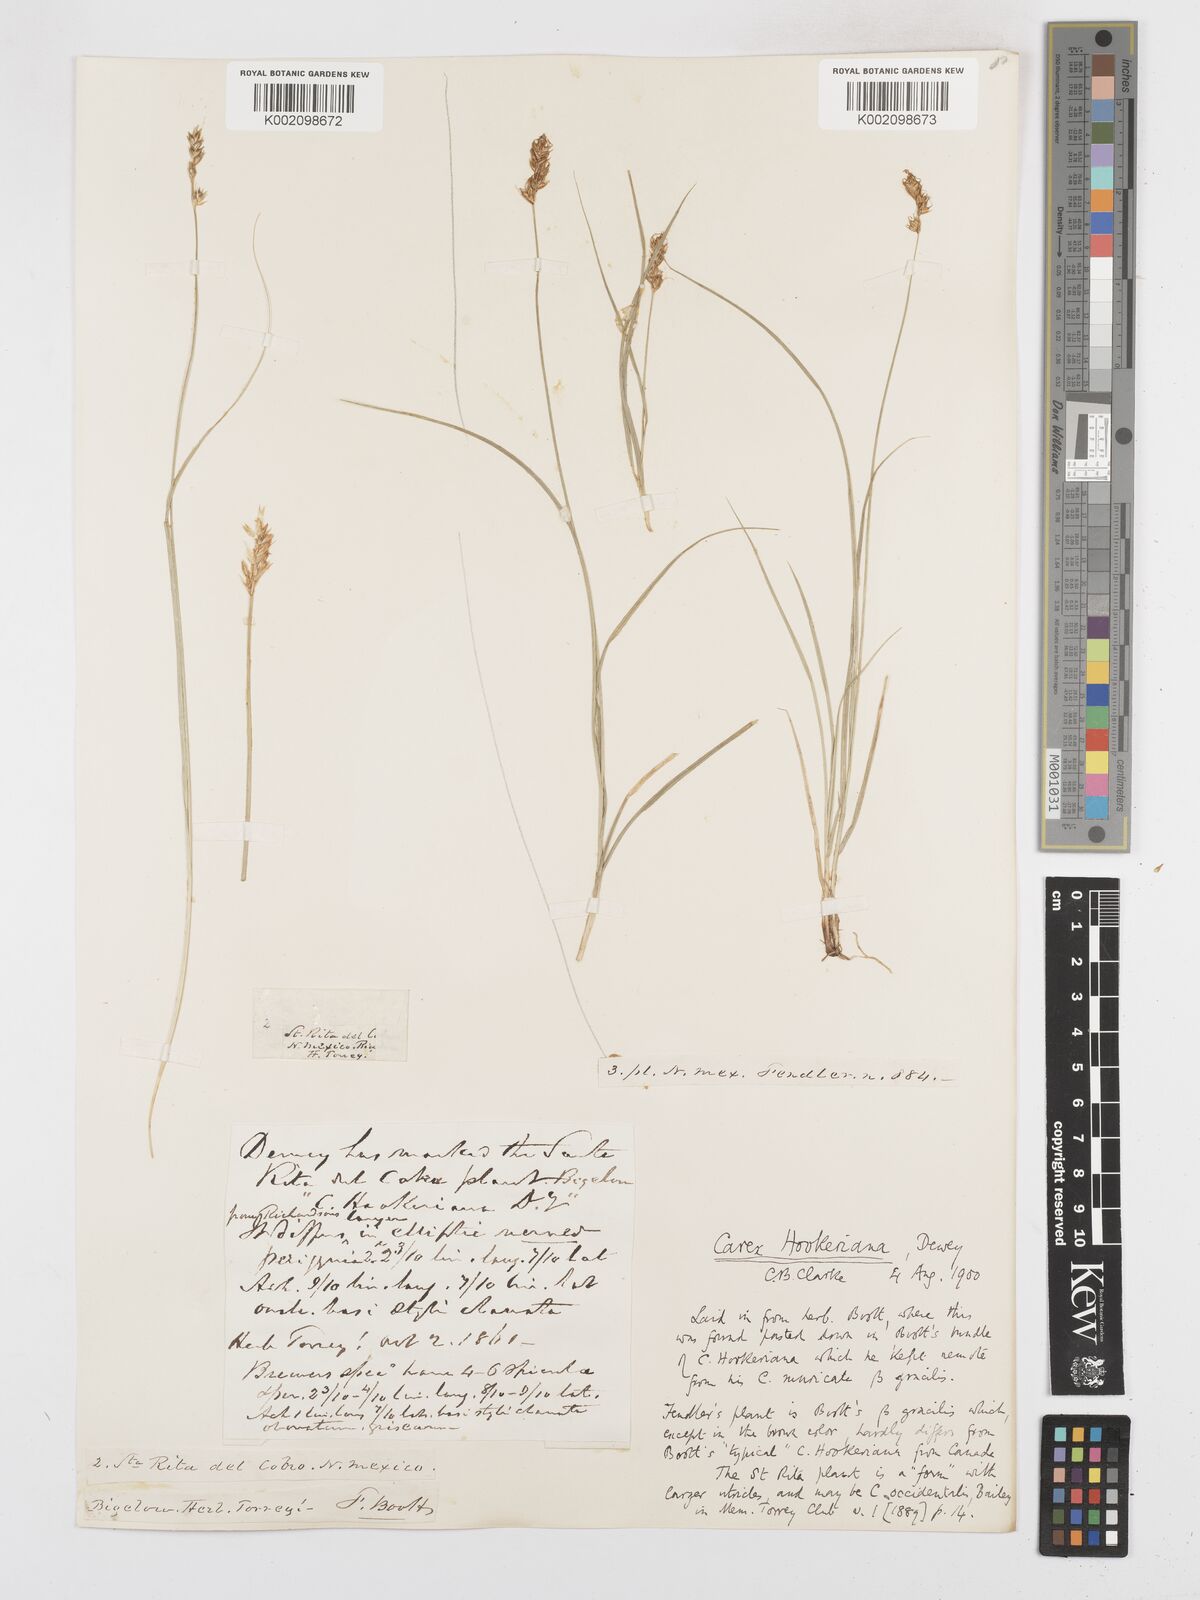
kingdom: Plantae
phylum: Tracheophyta
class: Liliopsida
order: Poales
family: Cyperaceae
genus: Carex
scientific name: Carex tumulicola
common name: Splitawn sedge
